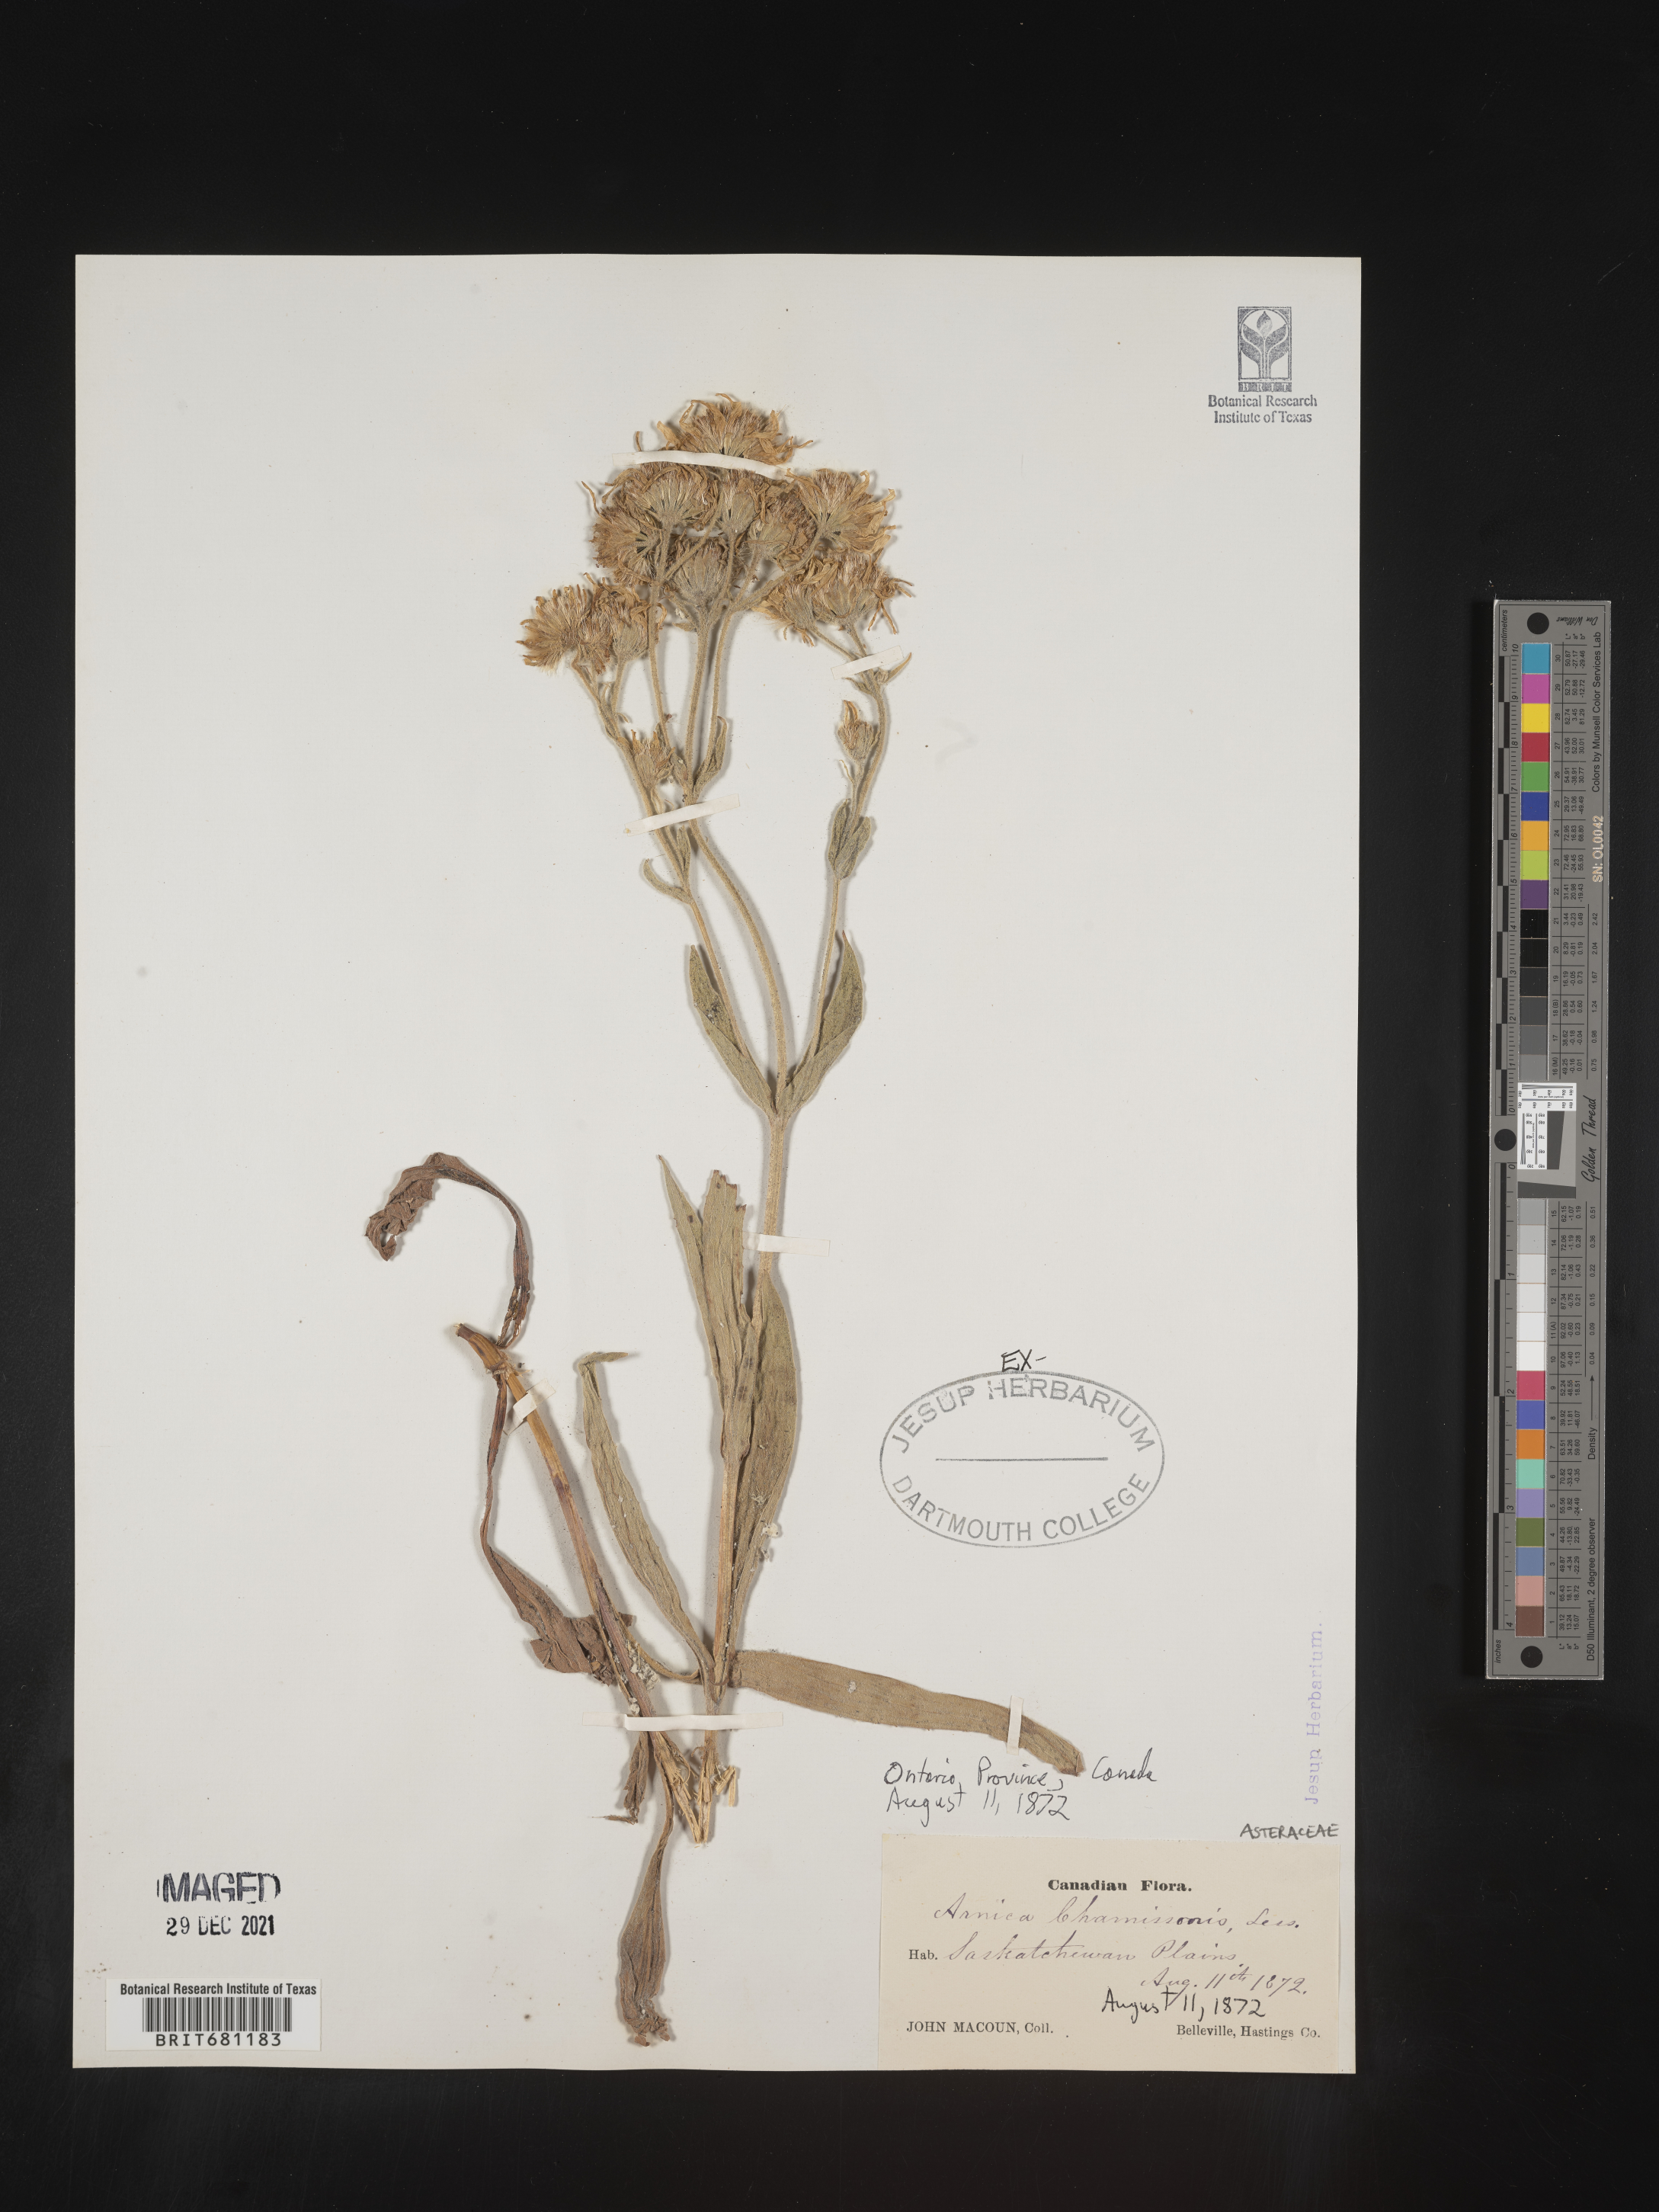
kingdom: Plantae
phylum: Tracheophyta
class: Magnoliopsida
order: Asterales
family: Asteraceae
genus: Arnica
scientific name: Arnica chamissonis
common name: Leafy arnica
